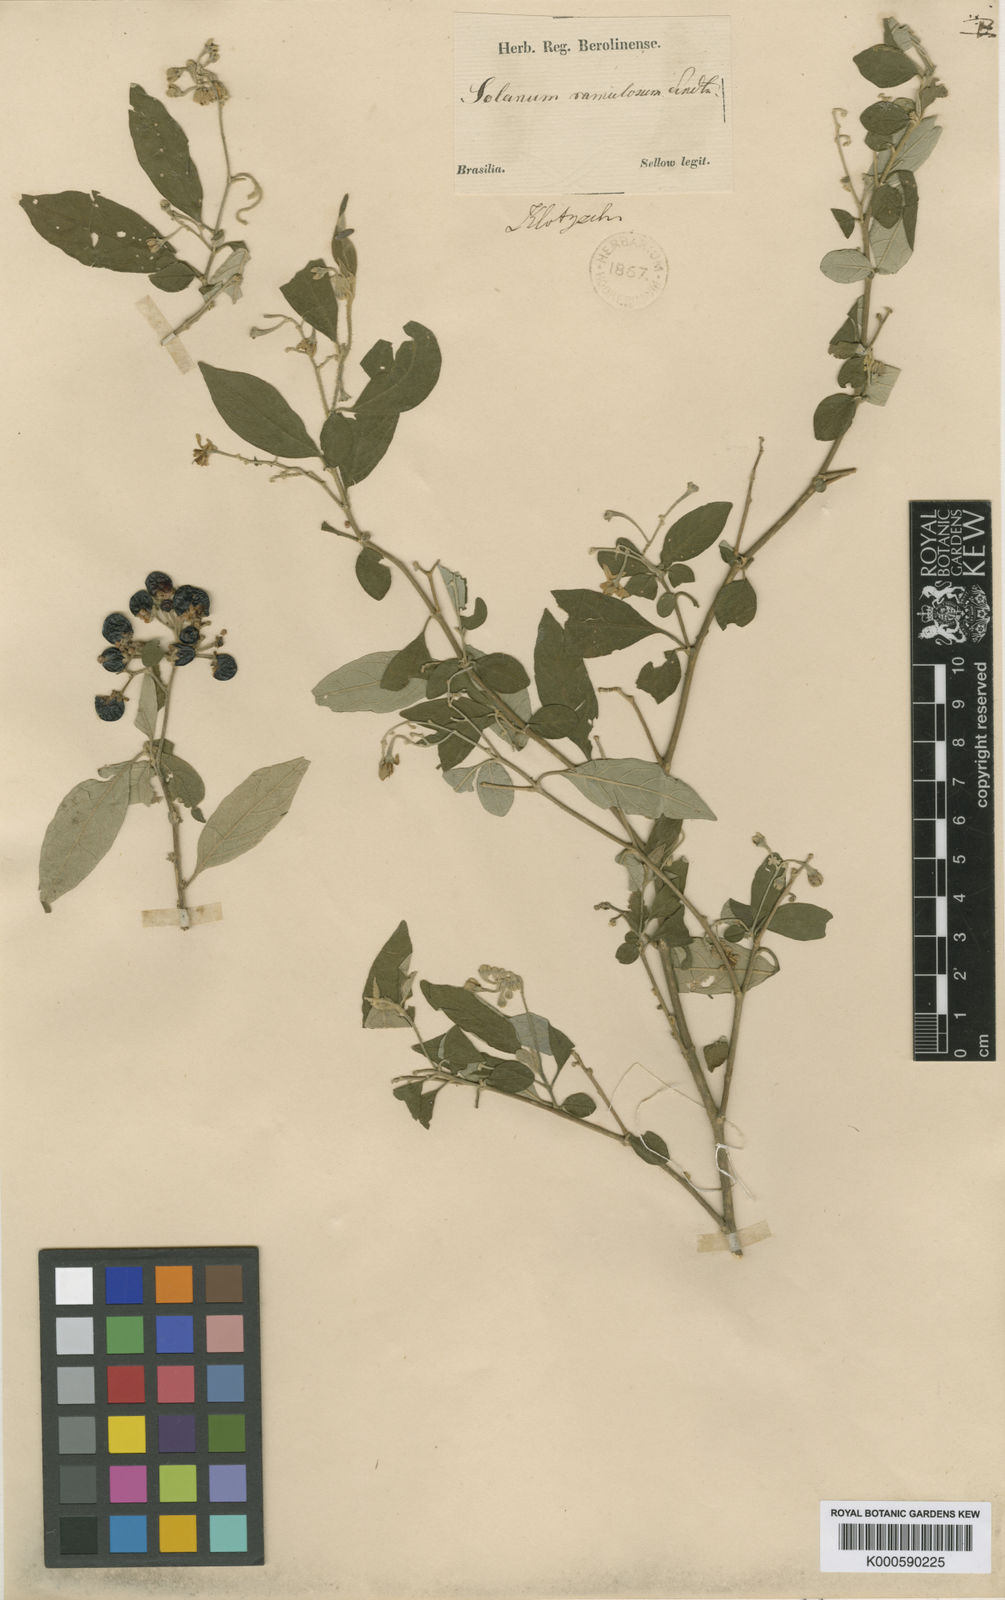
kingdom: Plantae
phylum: Tracheophyta
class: Magnoliopsida
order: Solanales
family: Solanaceae
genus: Solanum
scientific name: Solanum ramulosum
